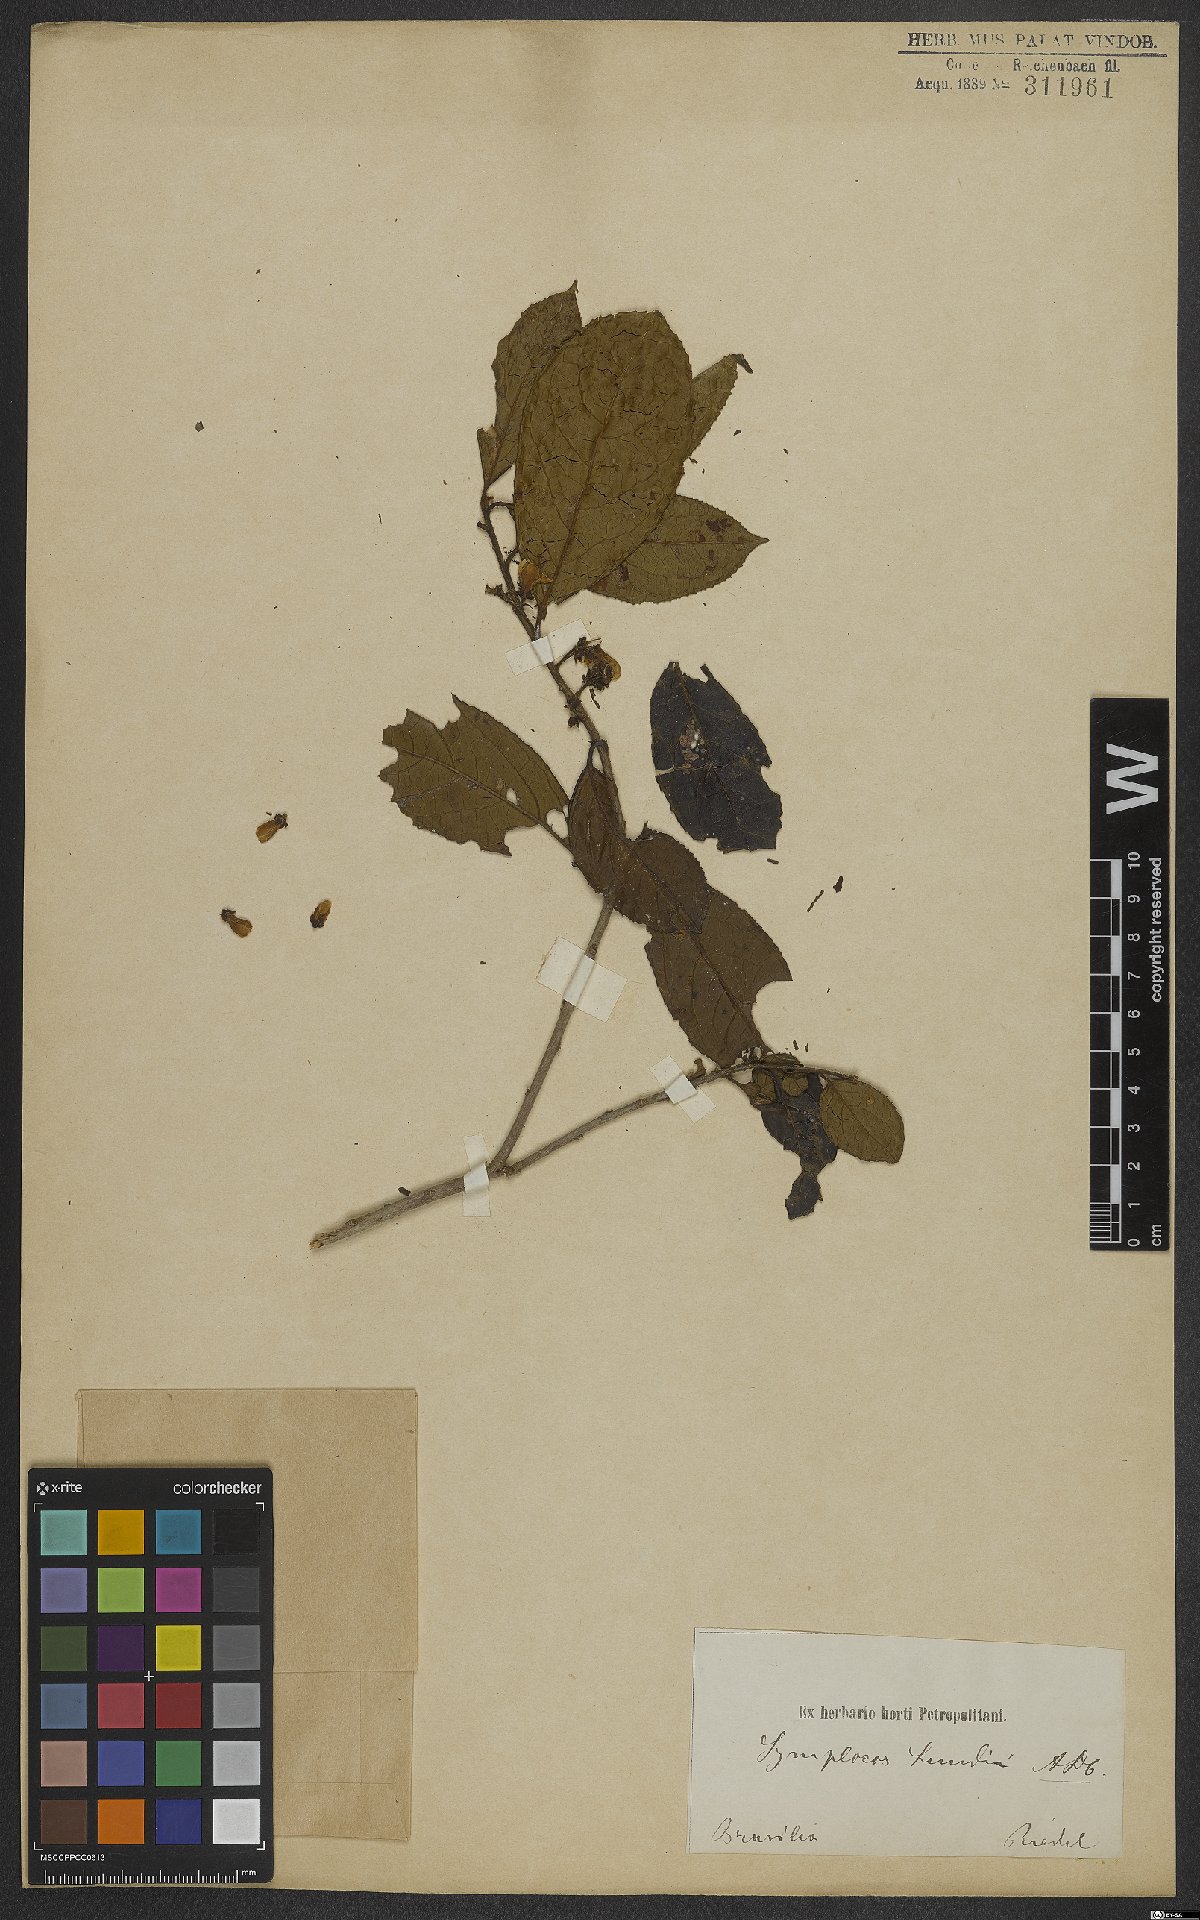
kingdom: Plantae
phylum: Tracheophyta
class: Magnoliopsida
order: Ericales
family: Symplocaceae
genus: Symplocos
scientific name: Symplocos uniflora
